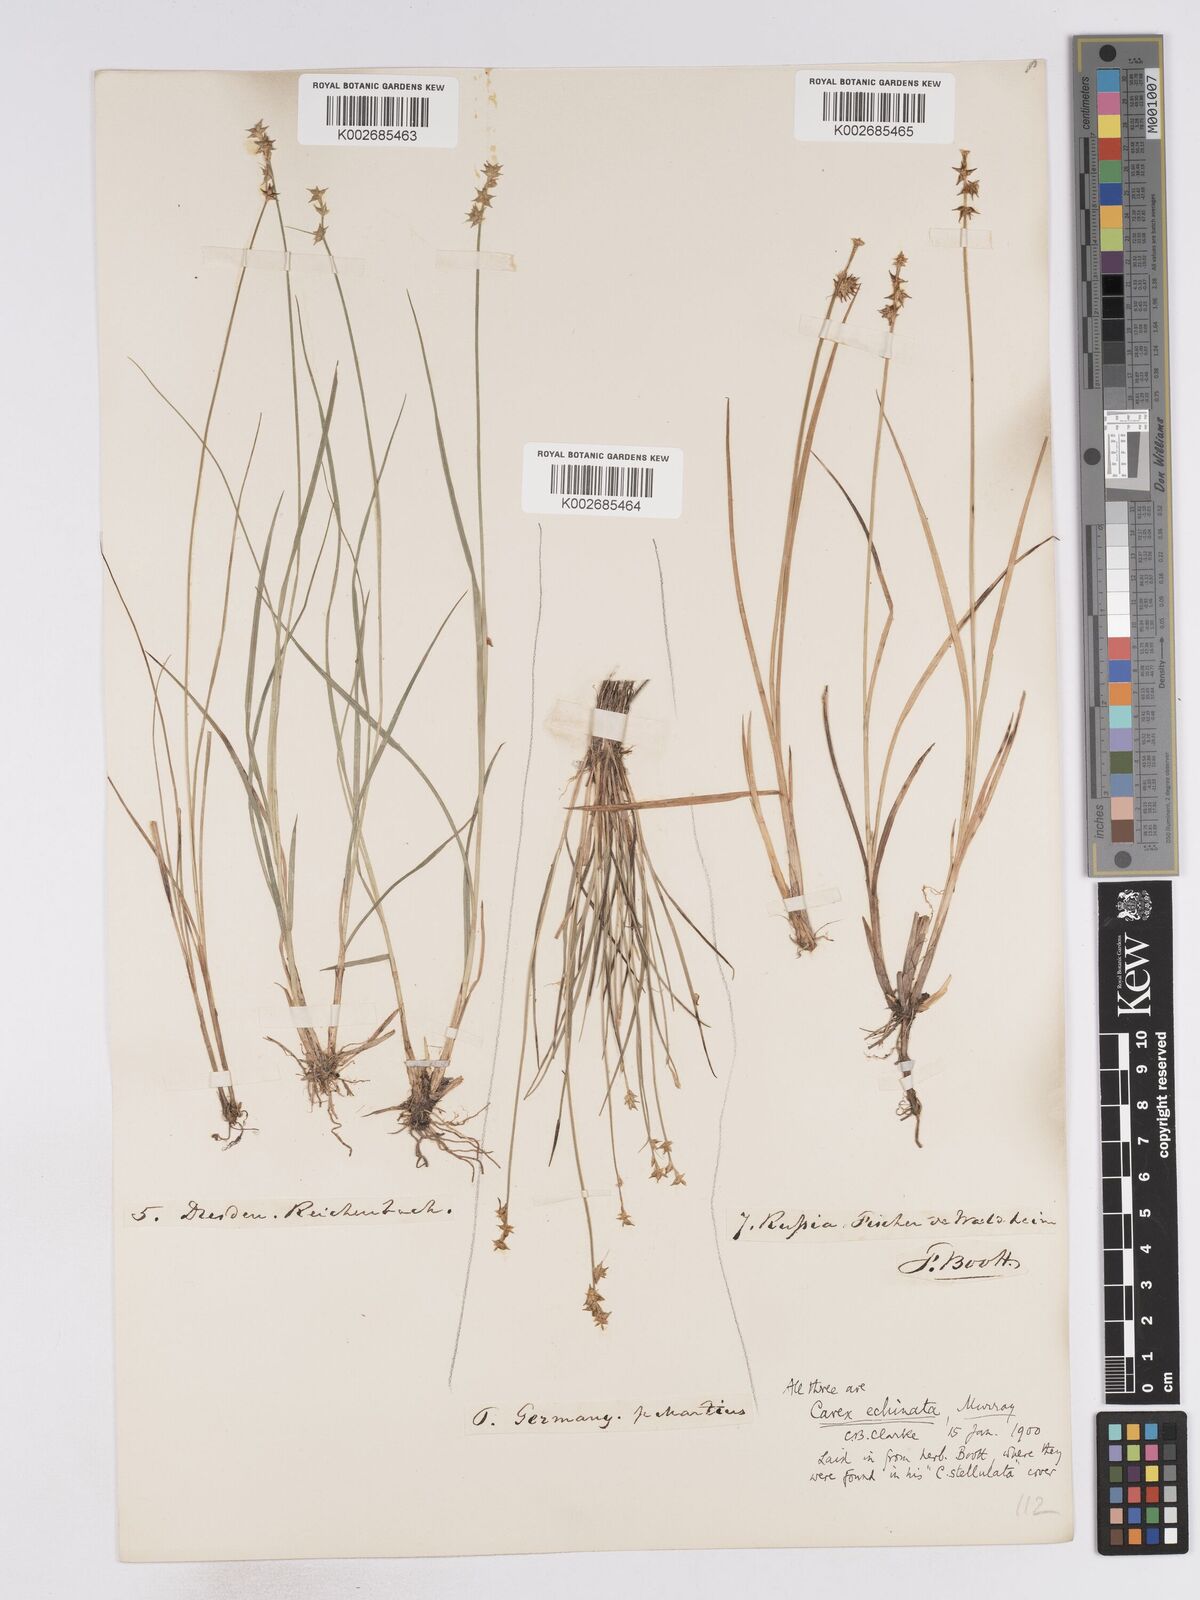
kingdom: Plantae
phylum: Tracheophyta
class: Liliopsida
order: Poales
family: Cyperaceae
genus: Carex
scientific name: Carex echinata
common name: Star sedge
